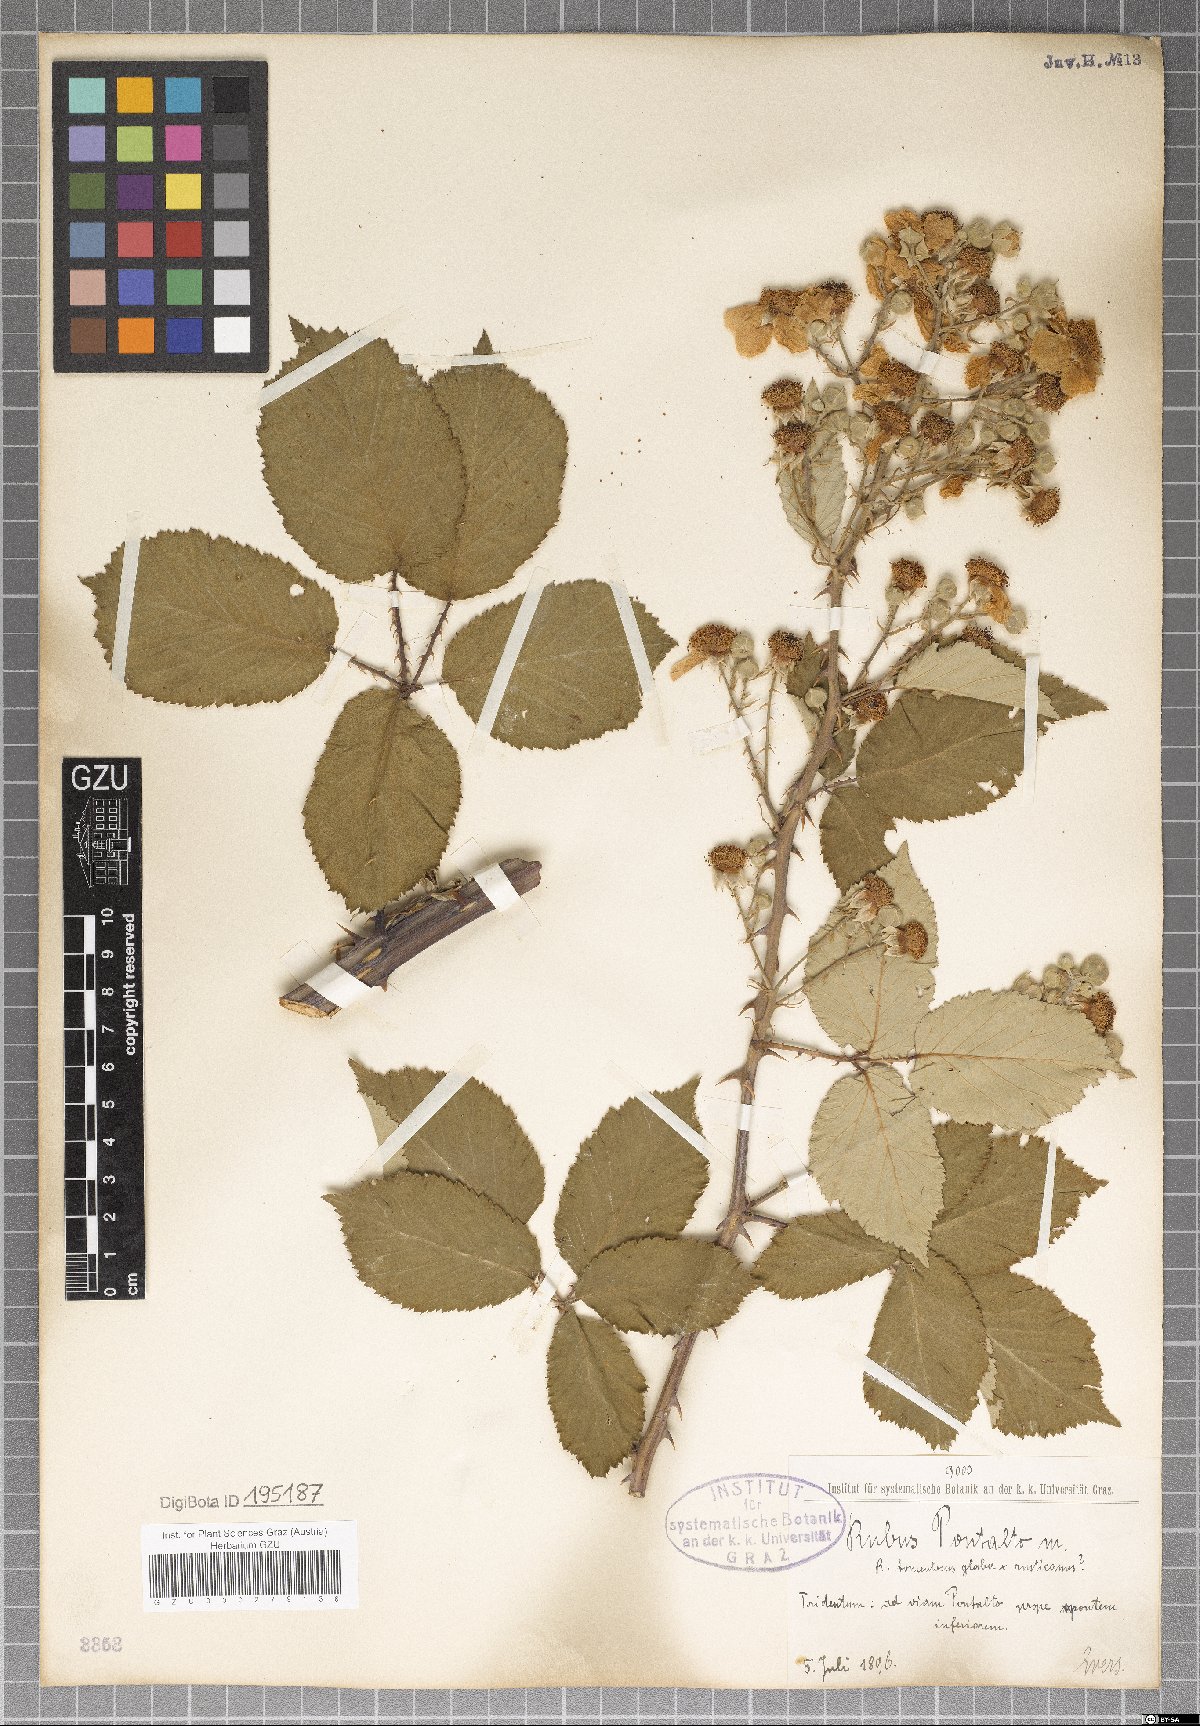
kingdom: Plantae
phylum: Tracheophyta
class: Magnoliopsida
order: Rosales
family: Rosaceae
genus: Rubus
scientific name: Rubus pontalto
